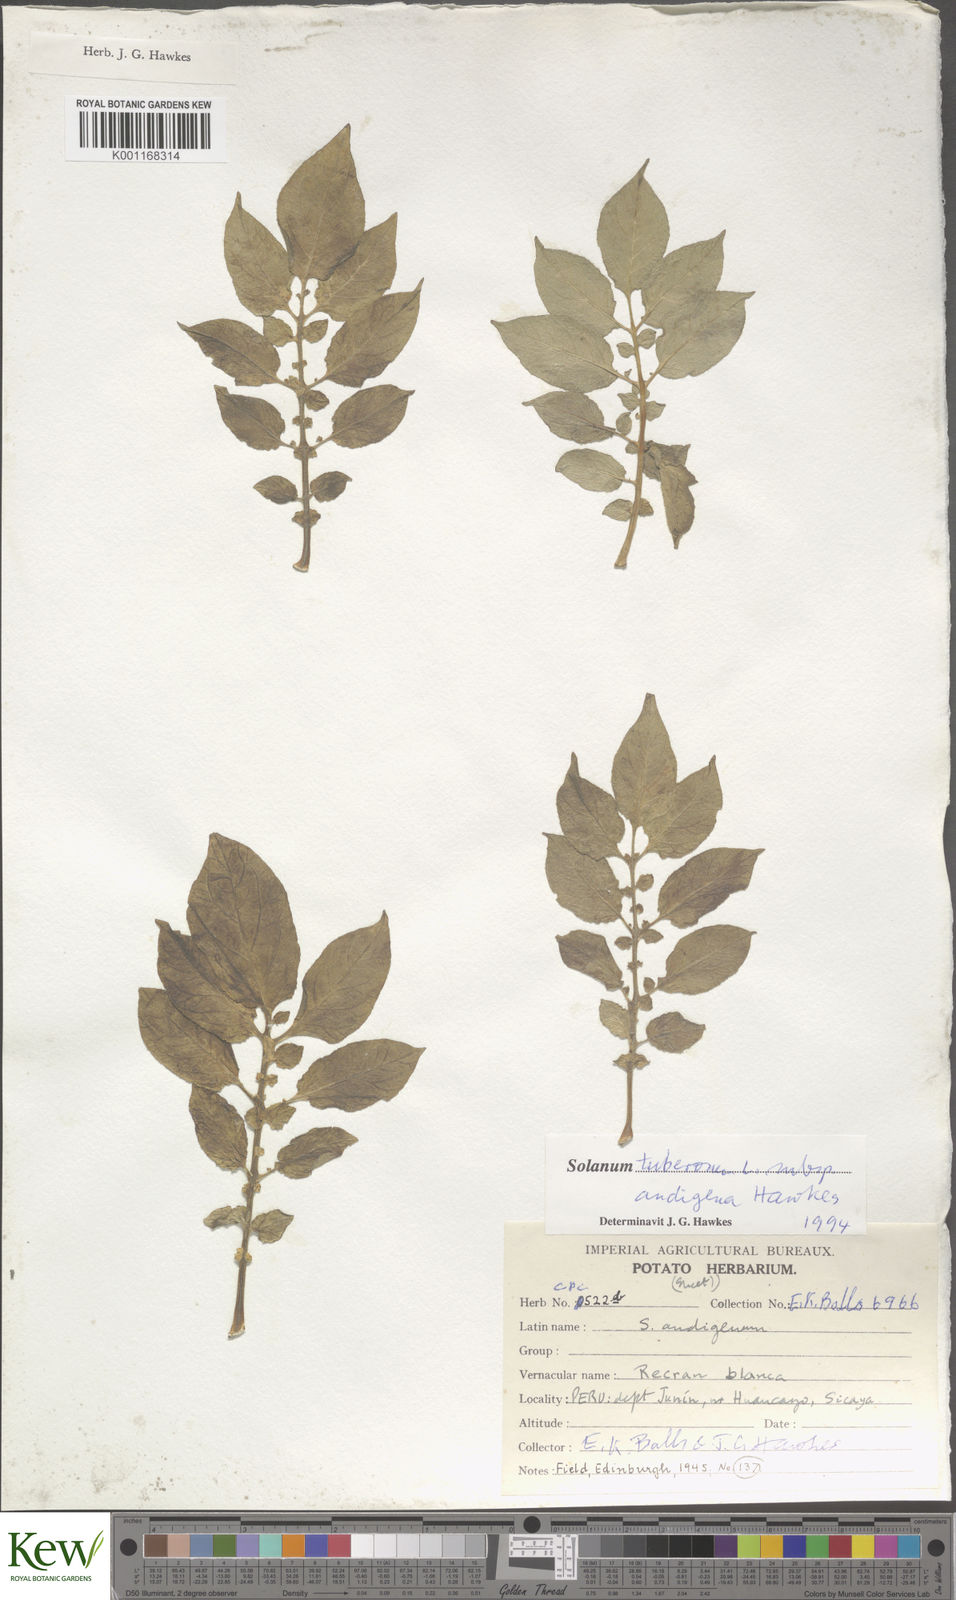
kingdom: Plantae
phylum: Tracheophyta
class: Magnoliopsida
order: Solanales
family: Solanaceae
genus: Solanum
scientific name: Solanum tuberosum
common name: Potato
